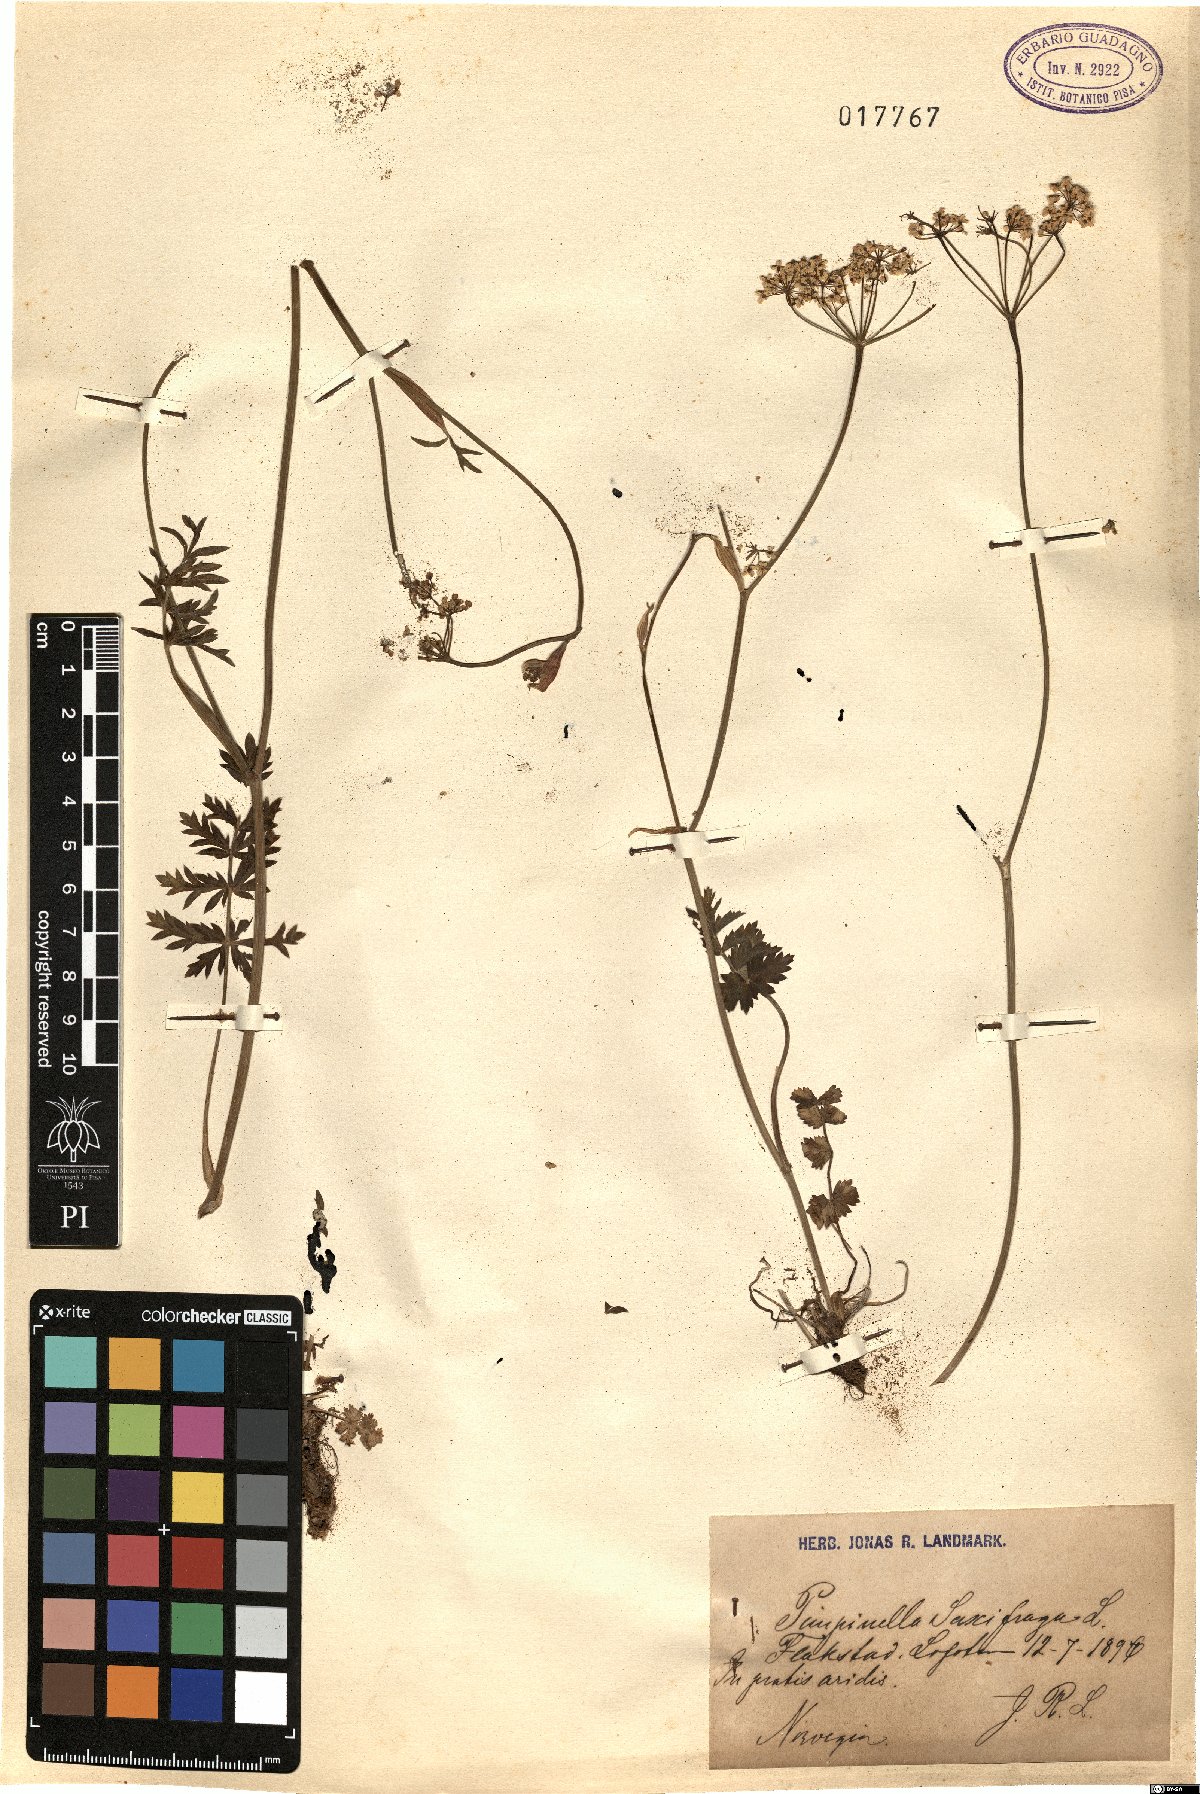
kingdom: Plantae
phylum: Tracheophyta
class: Magnoliopsida
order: Apiales
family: Apiaceae
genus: Pimpinella
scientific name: Pimpinella saxifraga
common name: Burnet-saxifrage
